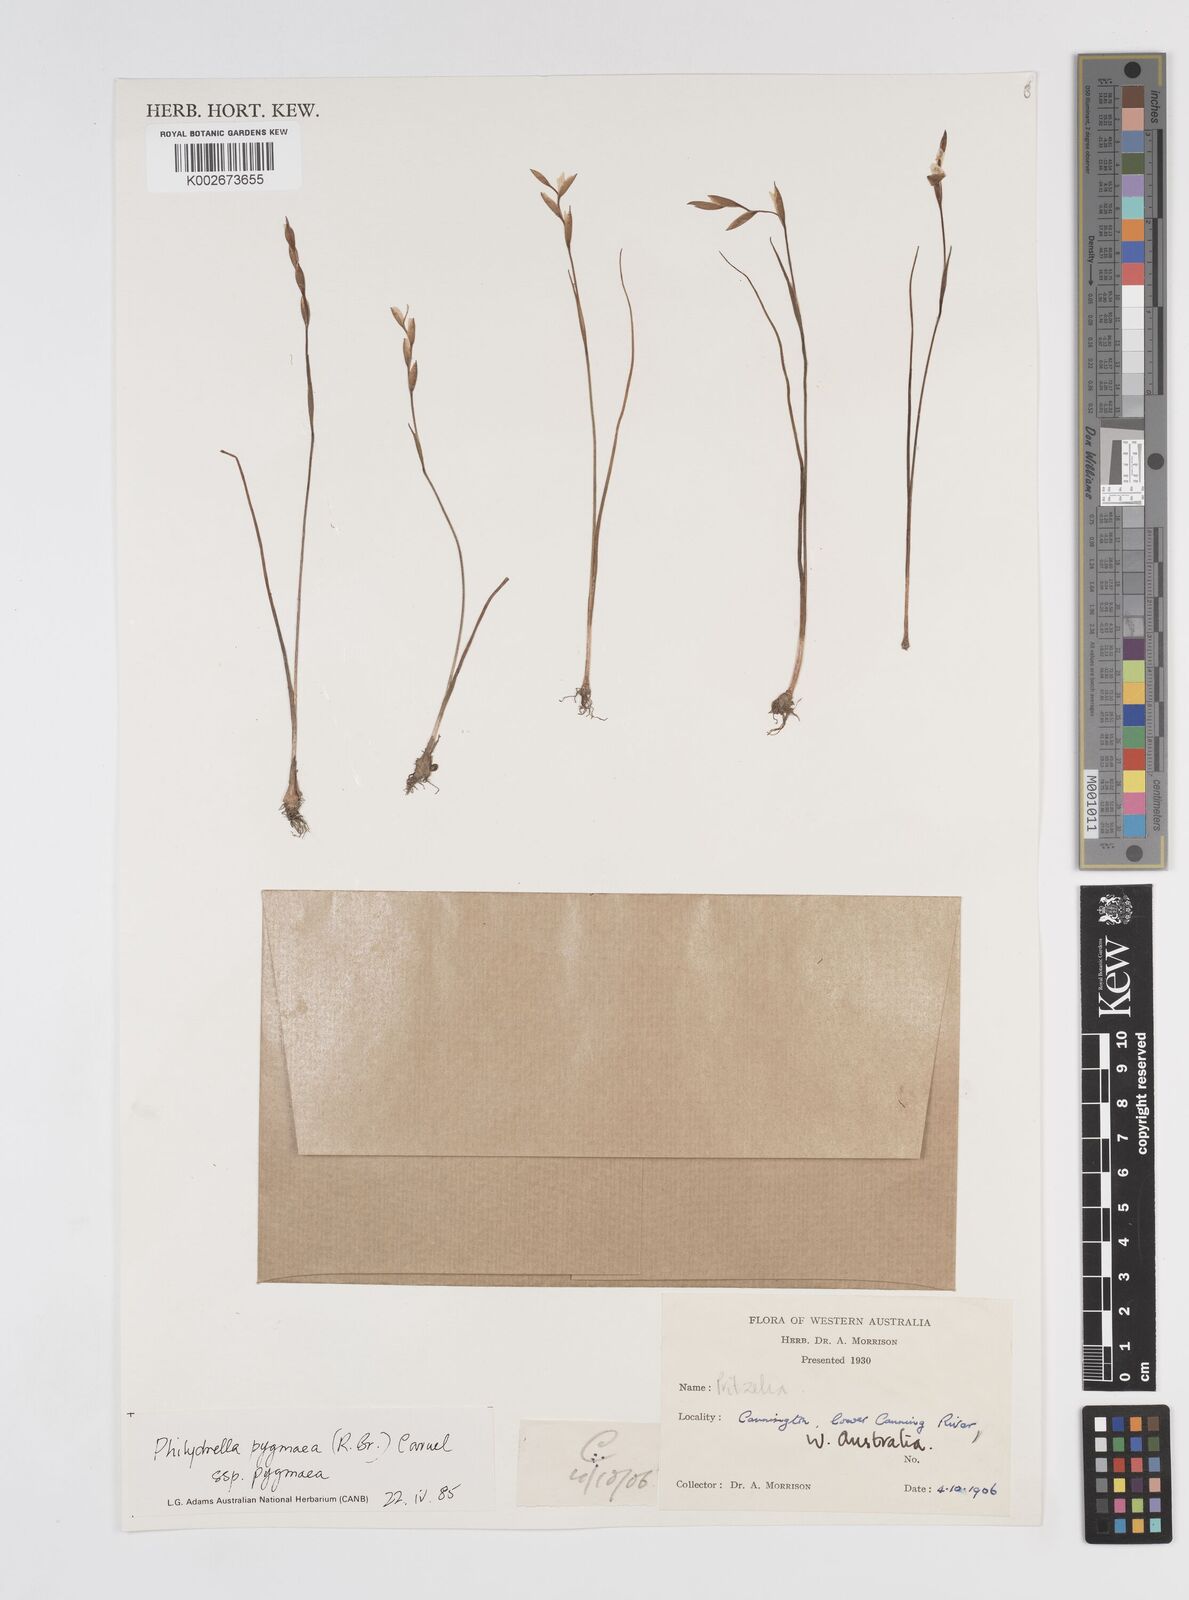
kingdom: Plantae
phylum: Tracheophyta
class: Liliopsida
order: Commelinales
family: Philydraceae
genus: Philydrella
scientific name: Philydrella pygmaea
